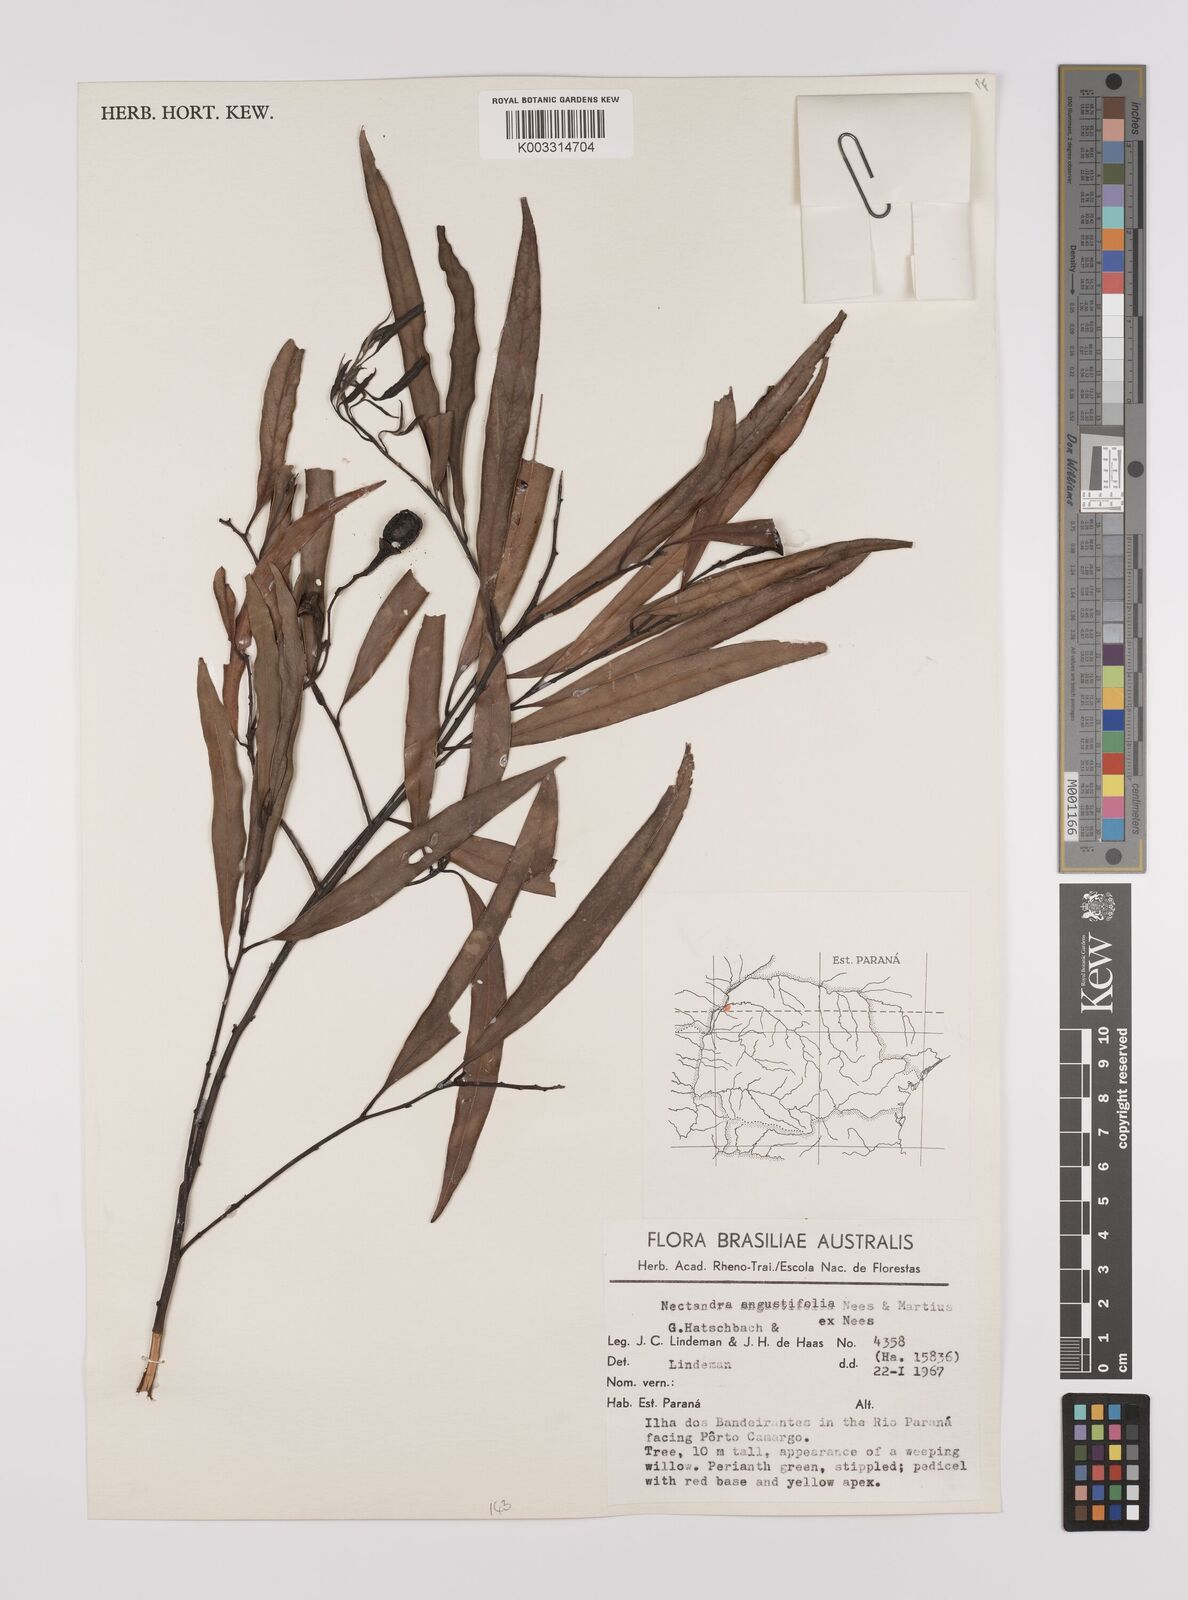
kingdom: Plantae
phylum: Tracheophyta
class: Magnoliopsida
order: Laurales
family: Lauraceae
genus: Nectandra
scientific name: Nectandra angustifolia
